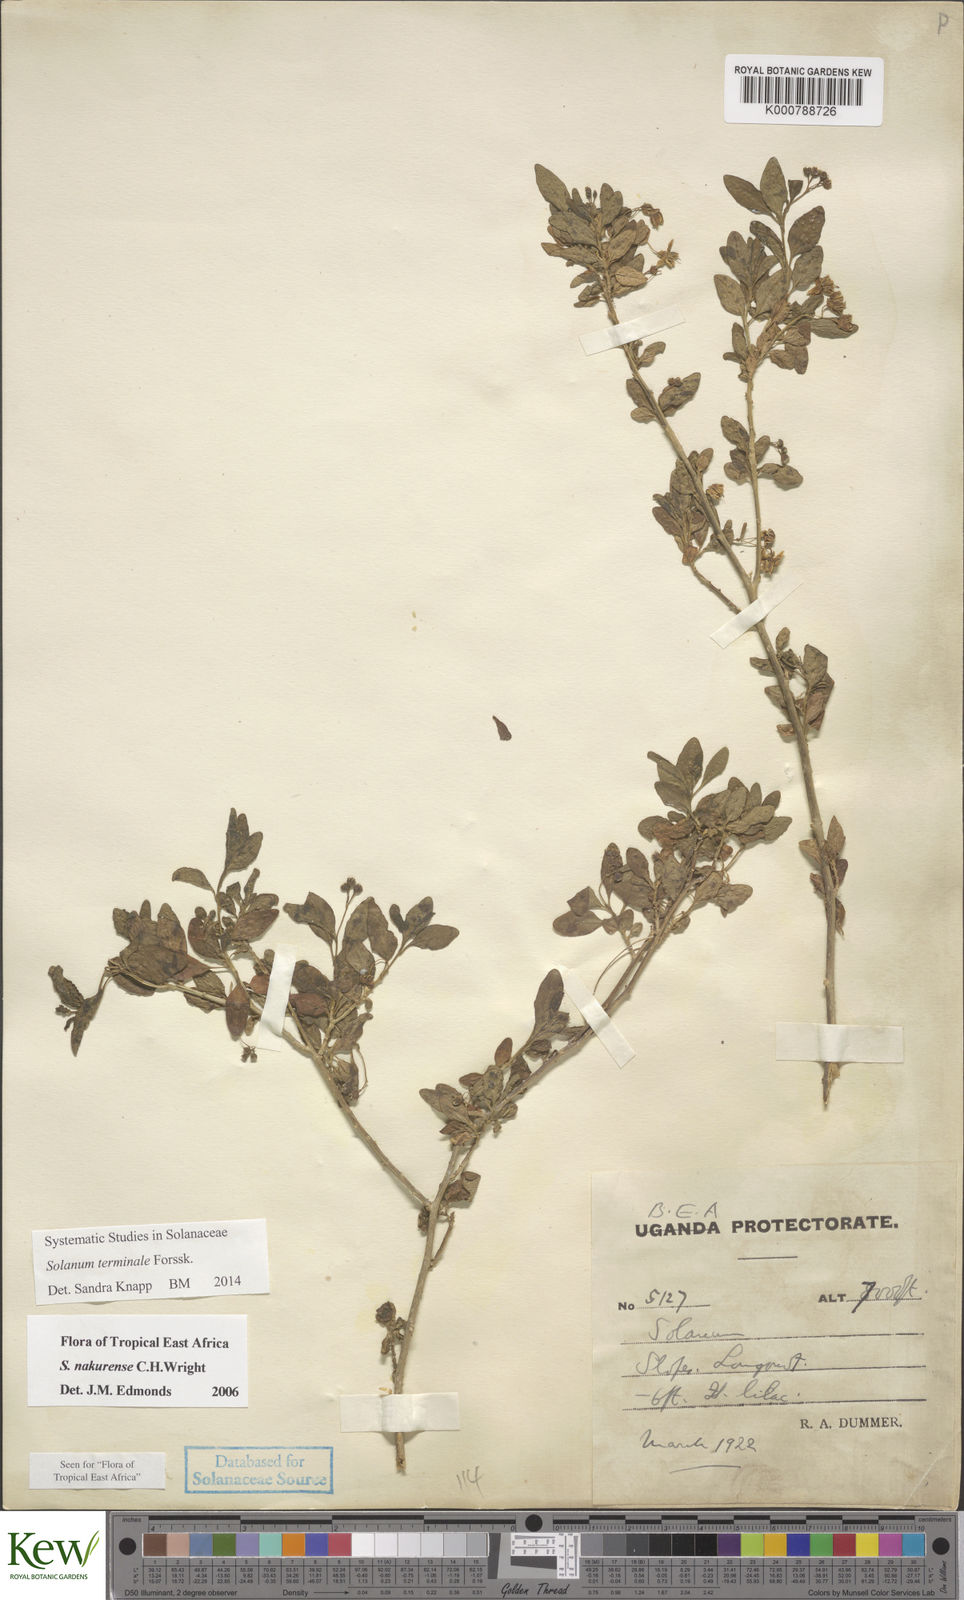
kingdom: Plantae
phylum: Tracheophyta
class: Magnoliopsida
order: Solanales
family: Solanaceae
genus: Solanum
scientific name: Solanum terminale
